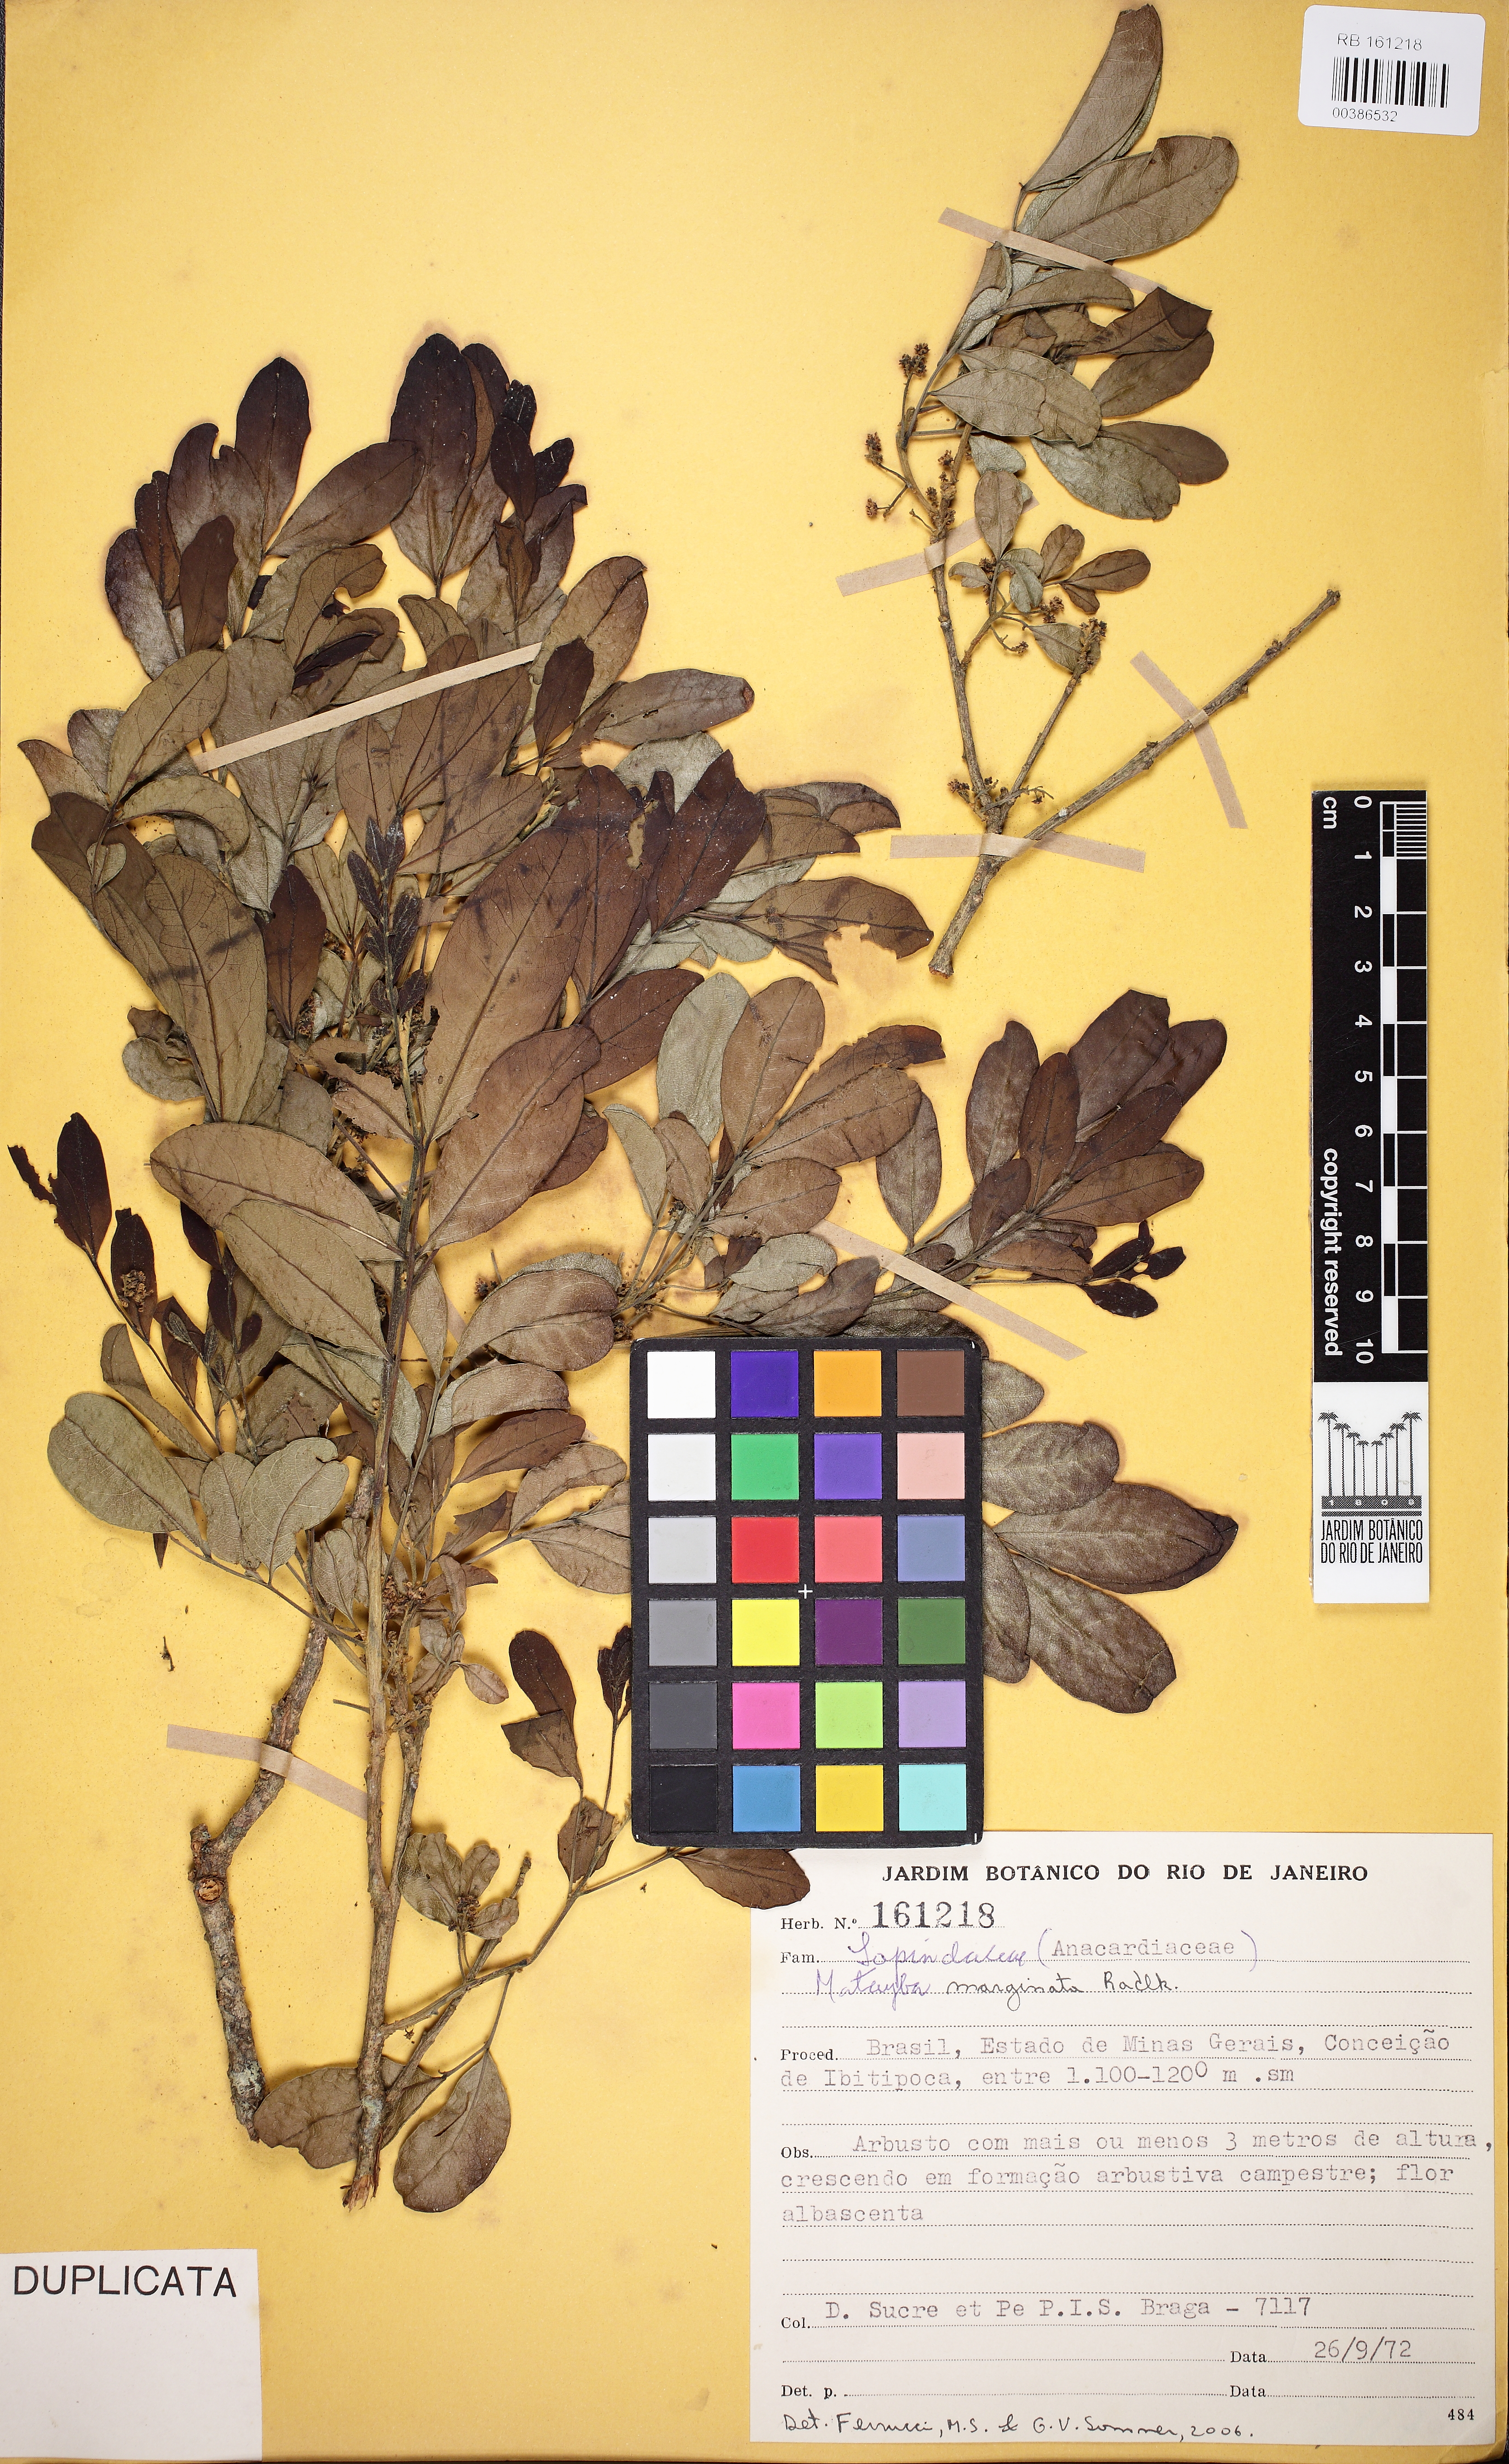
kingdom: Plantae
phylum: Tracheophyta
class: Magnoliopsida
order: Sapindales
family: Sapindaceae
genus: Matayba
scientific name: Matayba marginata
